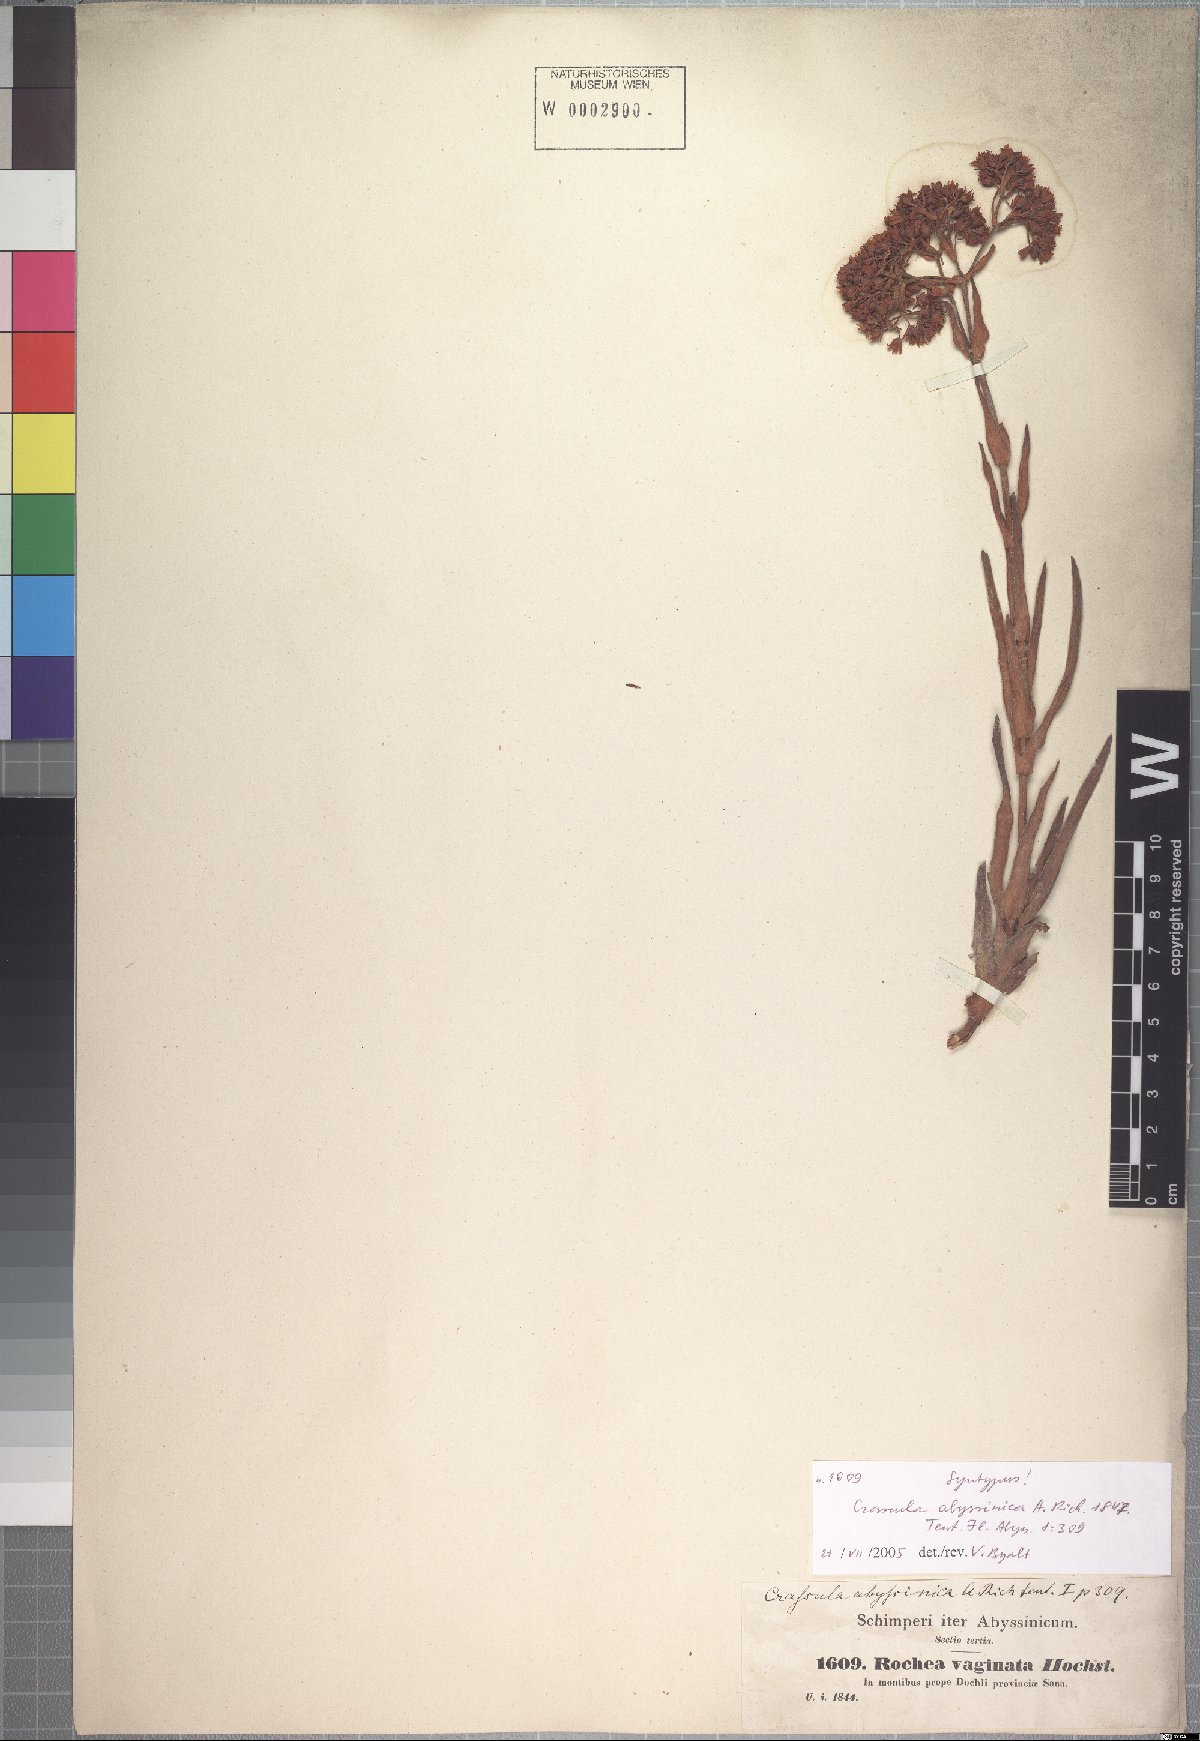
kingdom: Plantae
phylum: Tracheophyta
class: Magnoliopsida
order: Saxifragales
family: Crassulaceae
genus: Crassula
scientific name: Crassula alba
